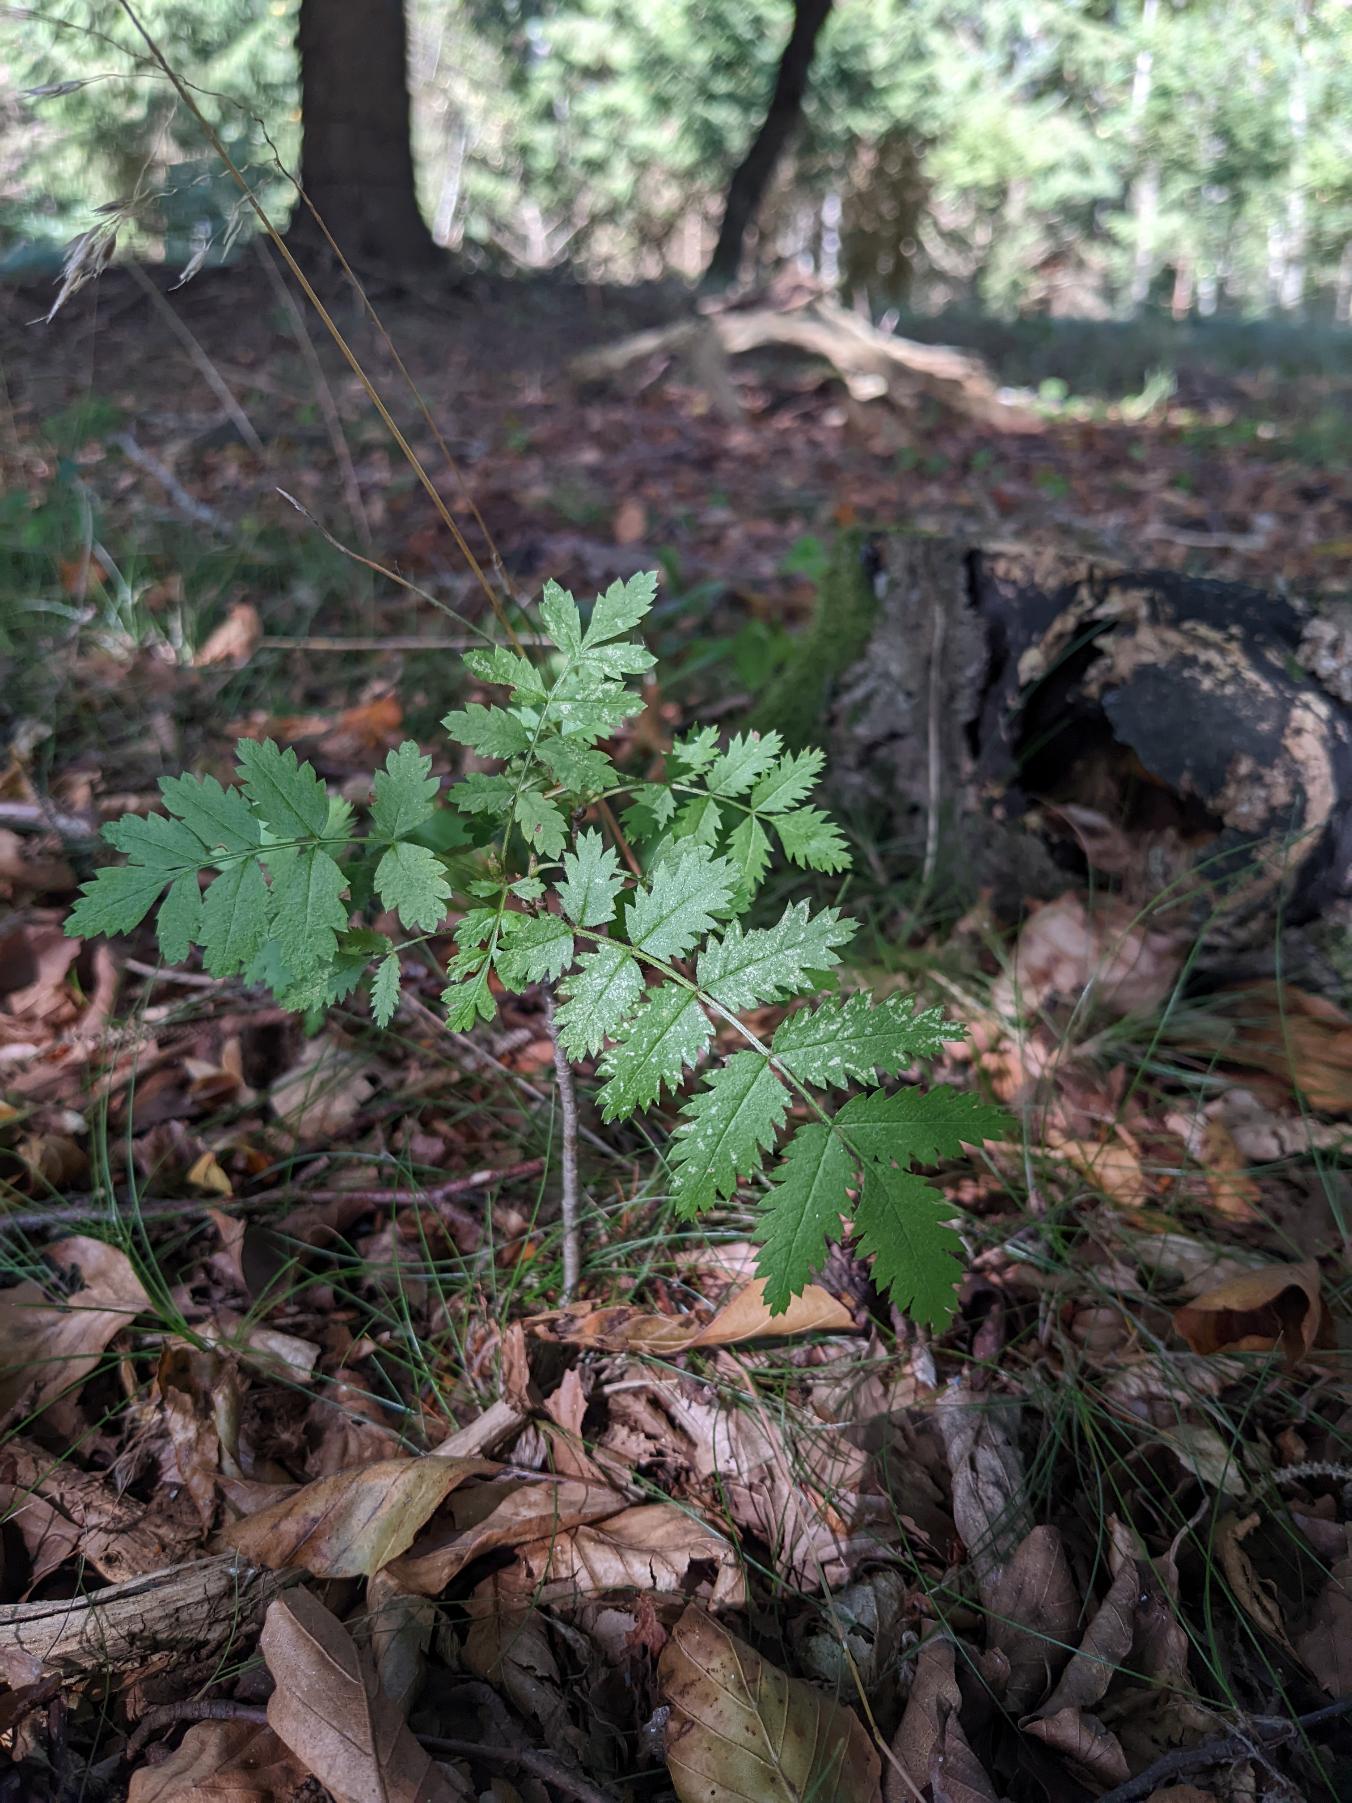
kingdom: Plantae
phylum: Tracheophyta
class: Magnoliopsida
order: Rosales
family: Rosaceae
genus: Sorbus
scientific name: Sorbus aucuparia
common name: Almindelig røn
